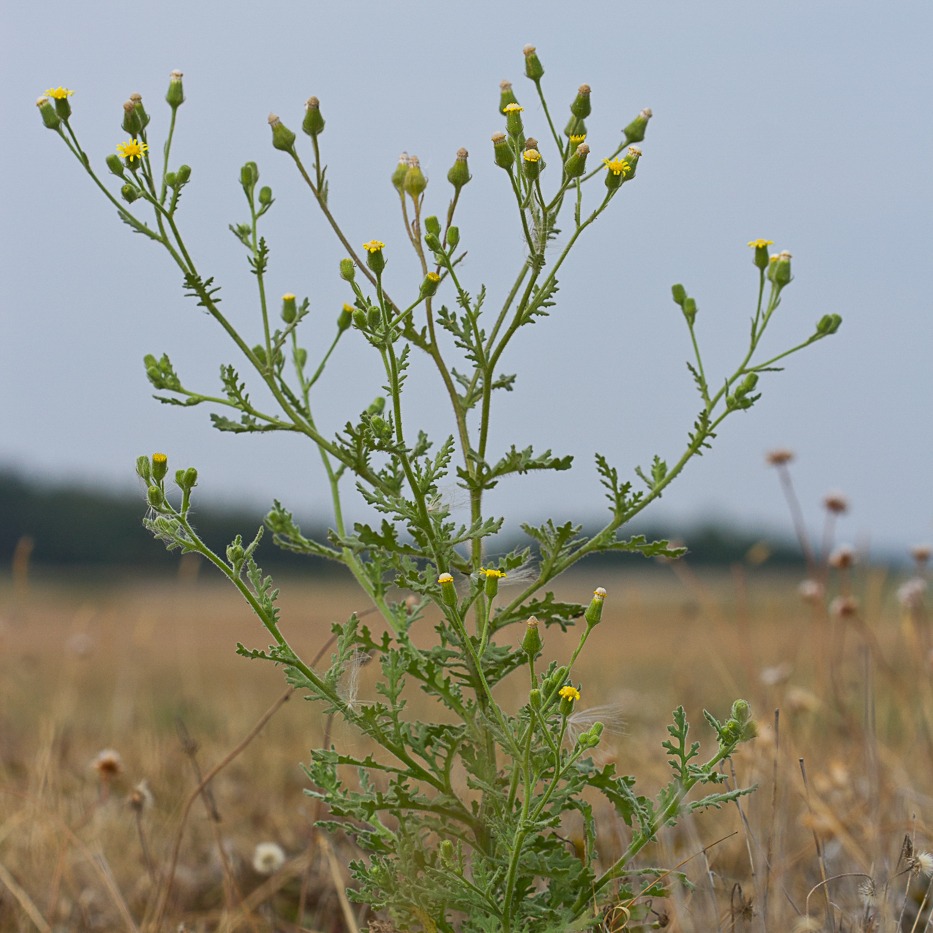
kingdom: Plantae
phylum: Tracheophyta
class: Magnoliopsida
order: Asterales
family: Asteraceae
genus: Senecio
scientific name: Senecio viscosus
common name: Klæbrig brandbæger
